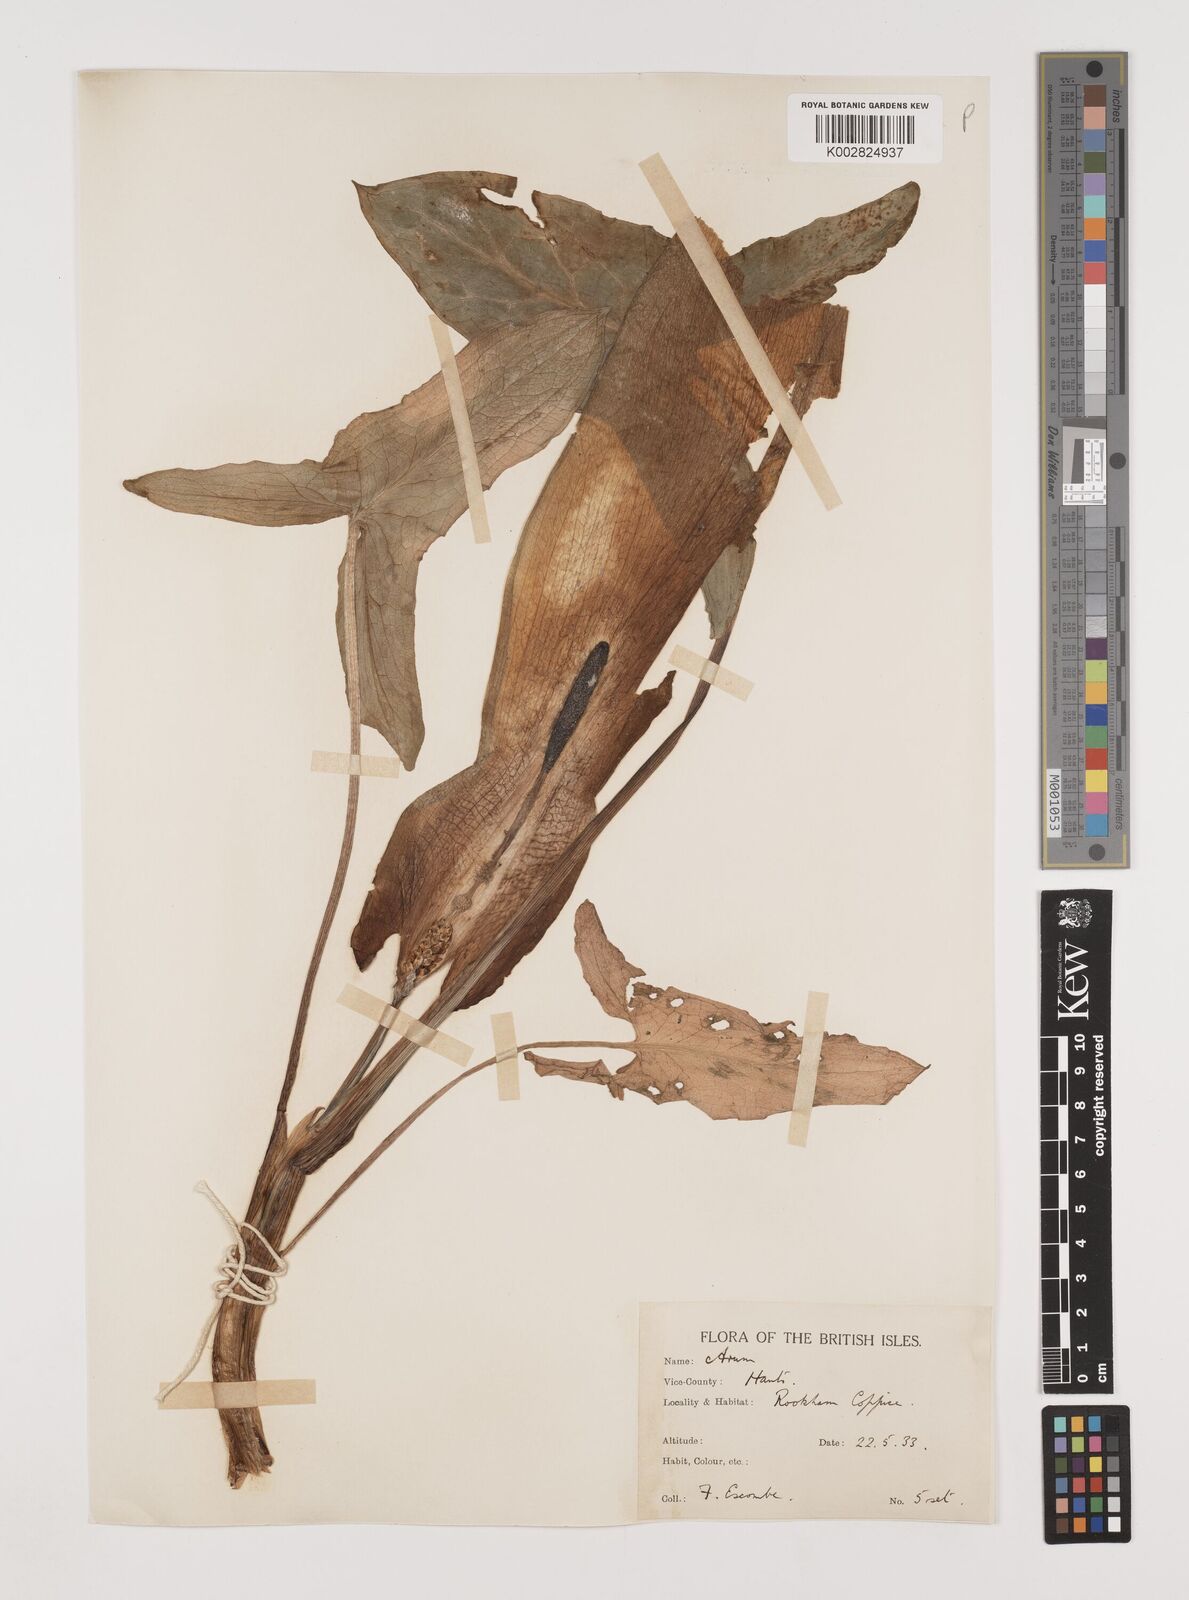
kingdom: Plantae
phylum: Tracheophyta
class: Liliopsida
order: Alismatales
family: Araceae
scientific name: Araceae
